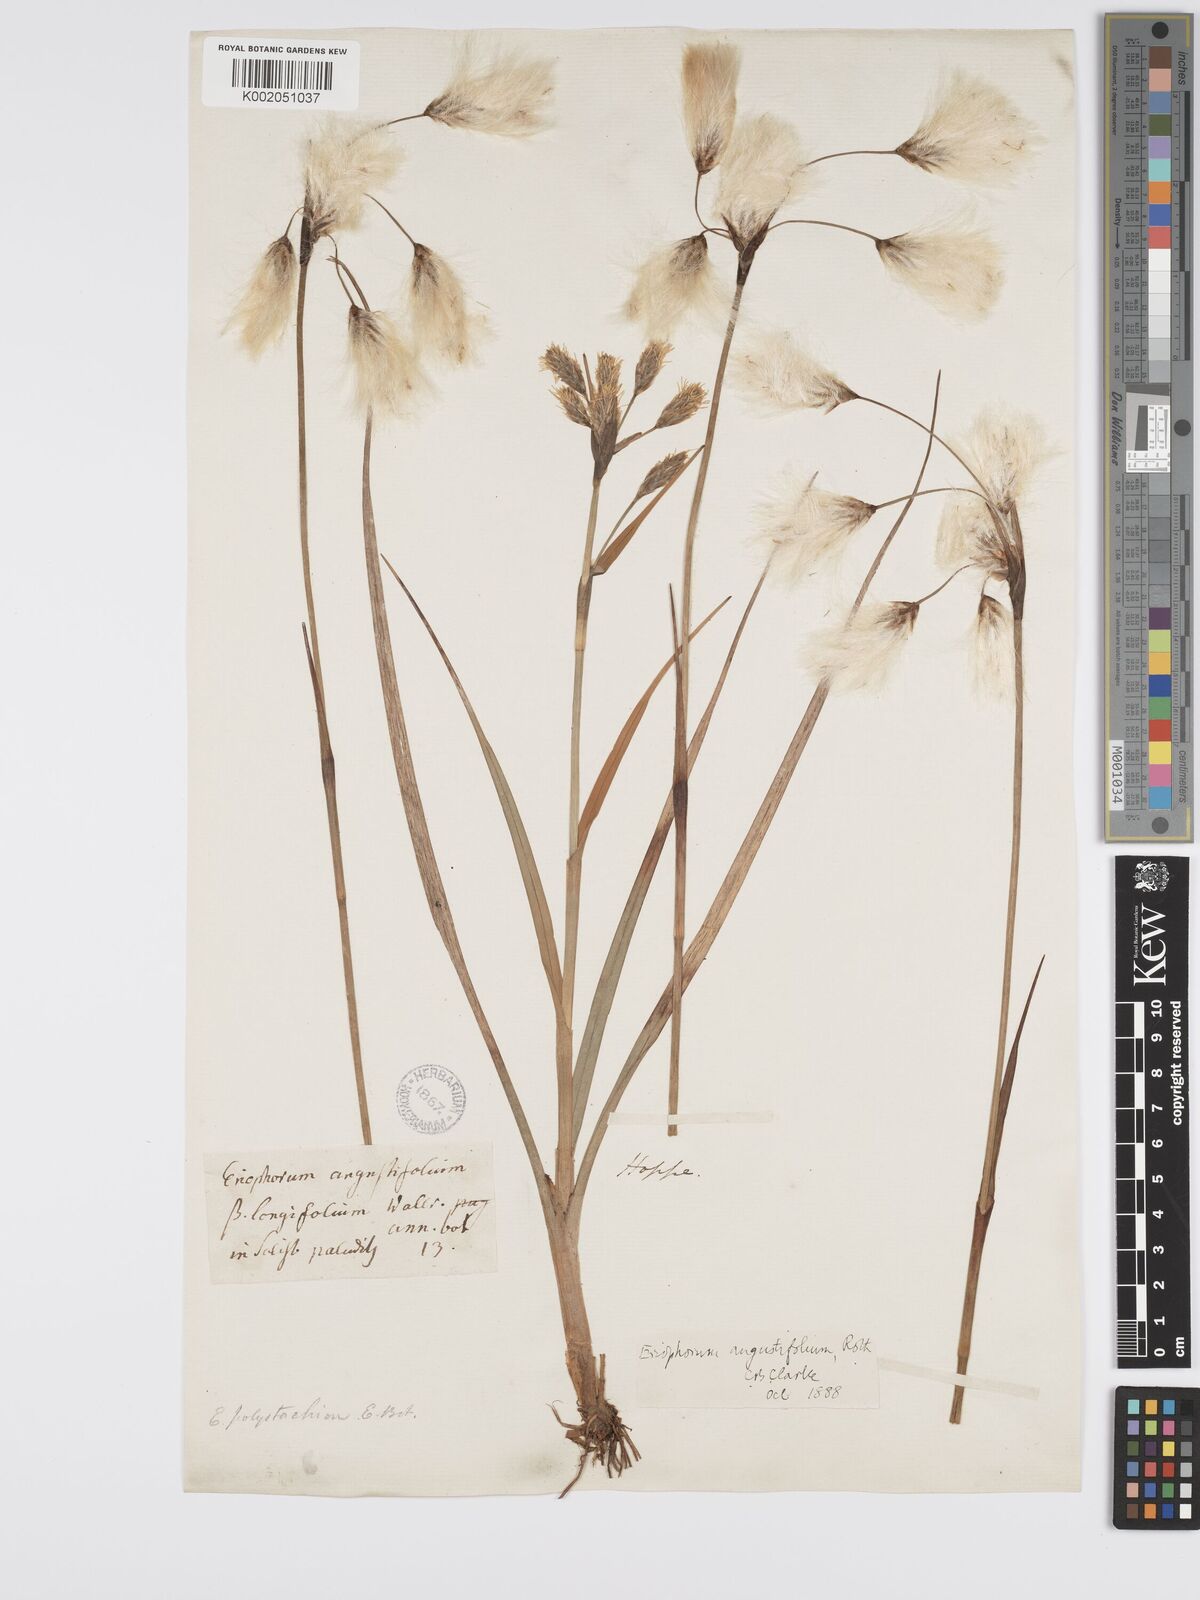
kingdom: Plantae
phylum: Tracheophyta
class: Liliopsida
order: Poales
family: Cyperaceae
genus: Eriophorum
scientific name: Eriophorum angustifolium
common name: Common cottongrass
